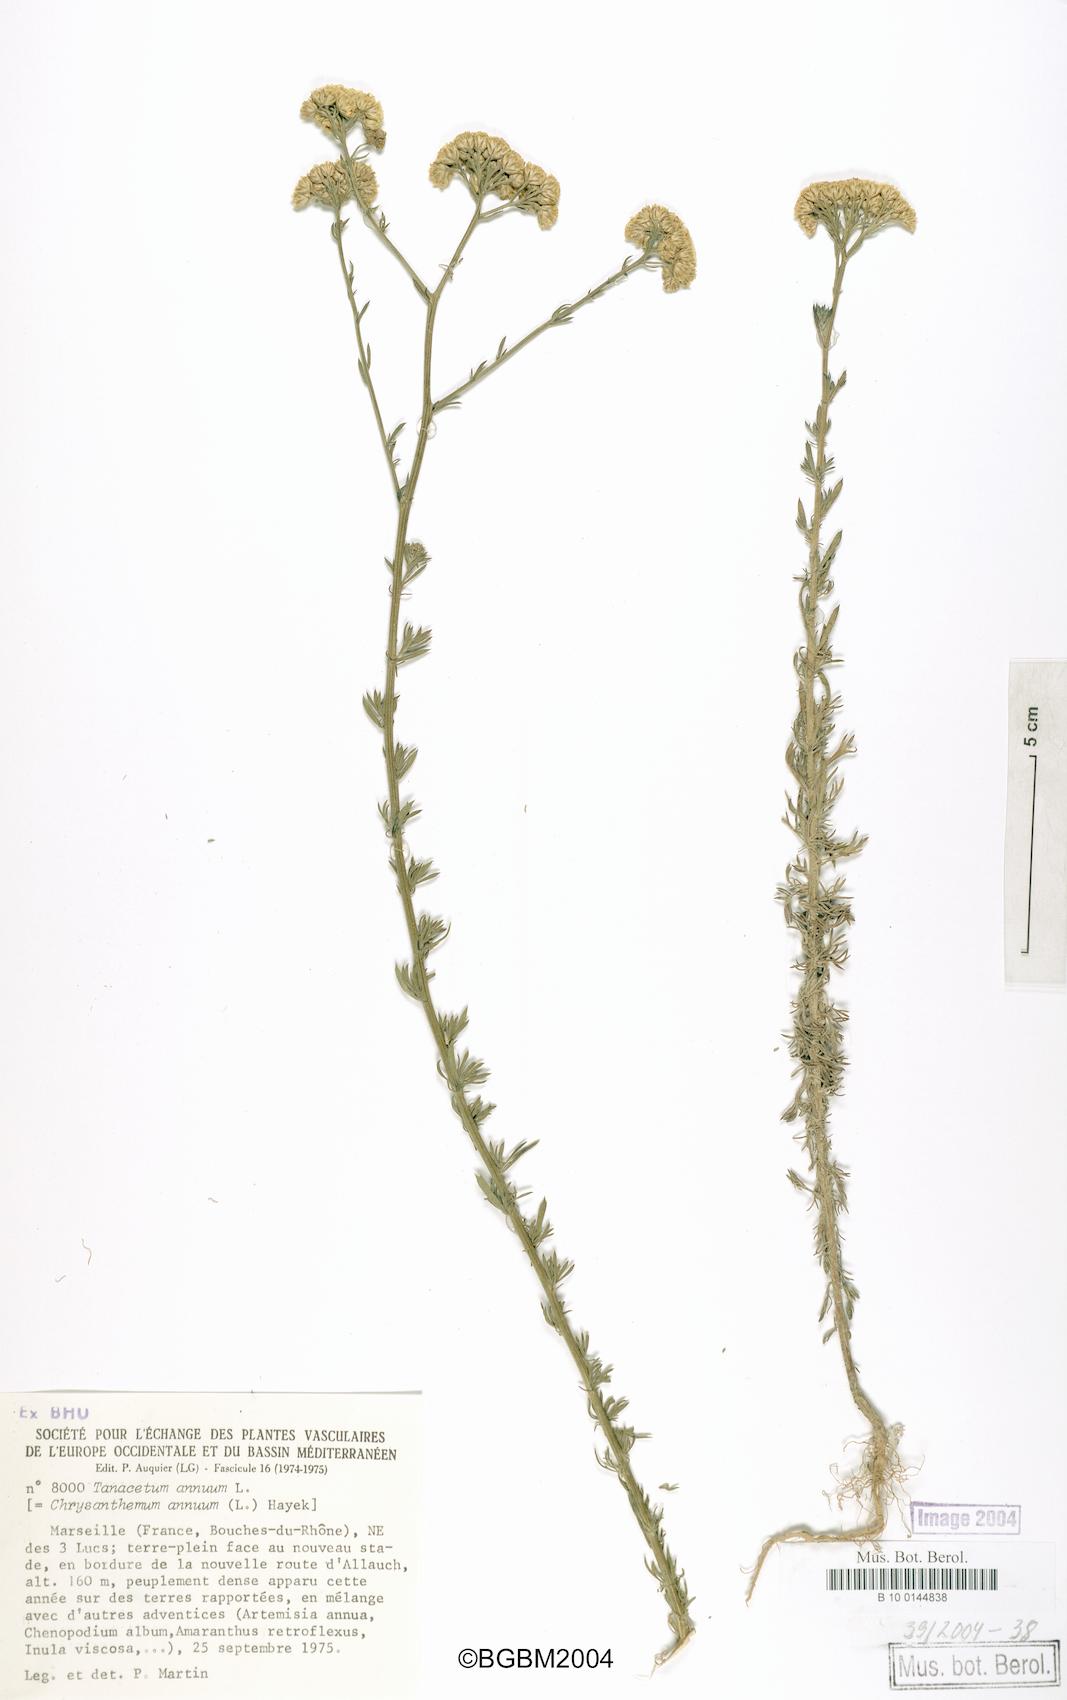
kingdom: Plantae
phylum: Tracheophyta
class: Magnoliopsida
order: Asterales
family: Asteraceae
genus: Vogtia
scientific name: Vogtia annua
